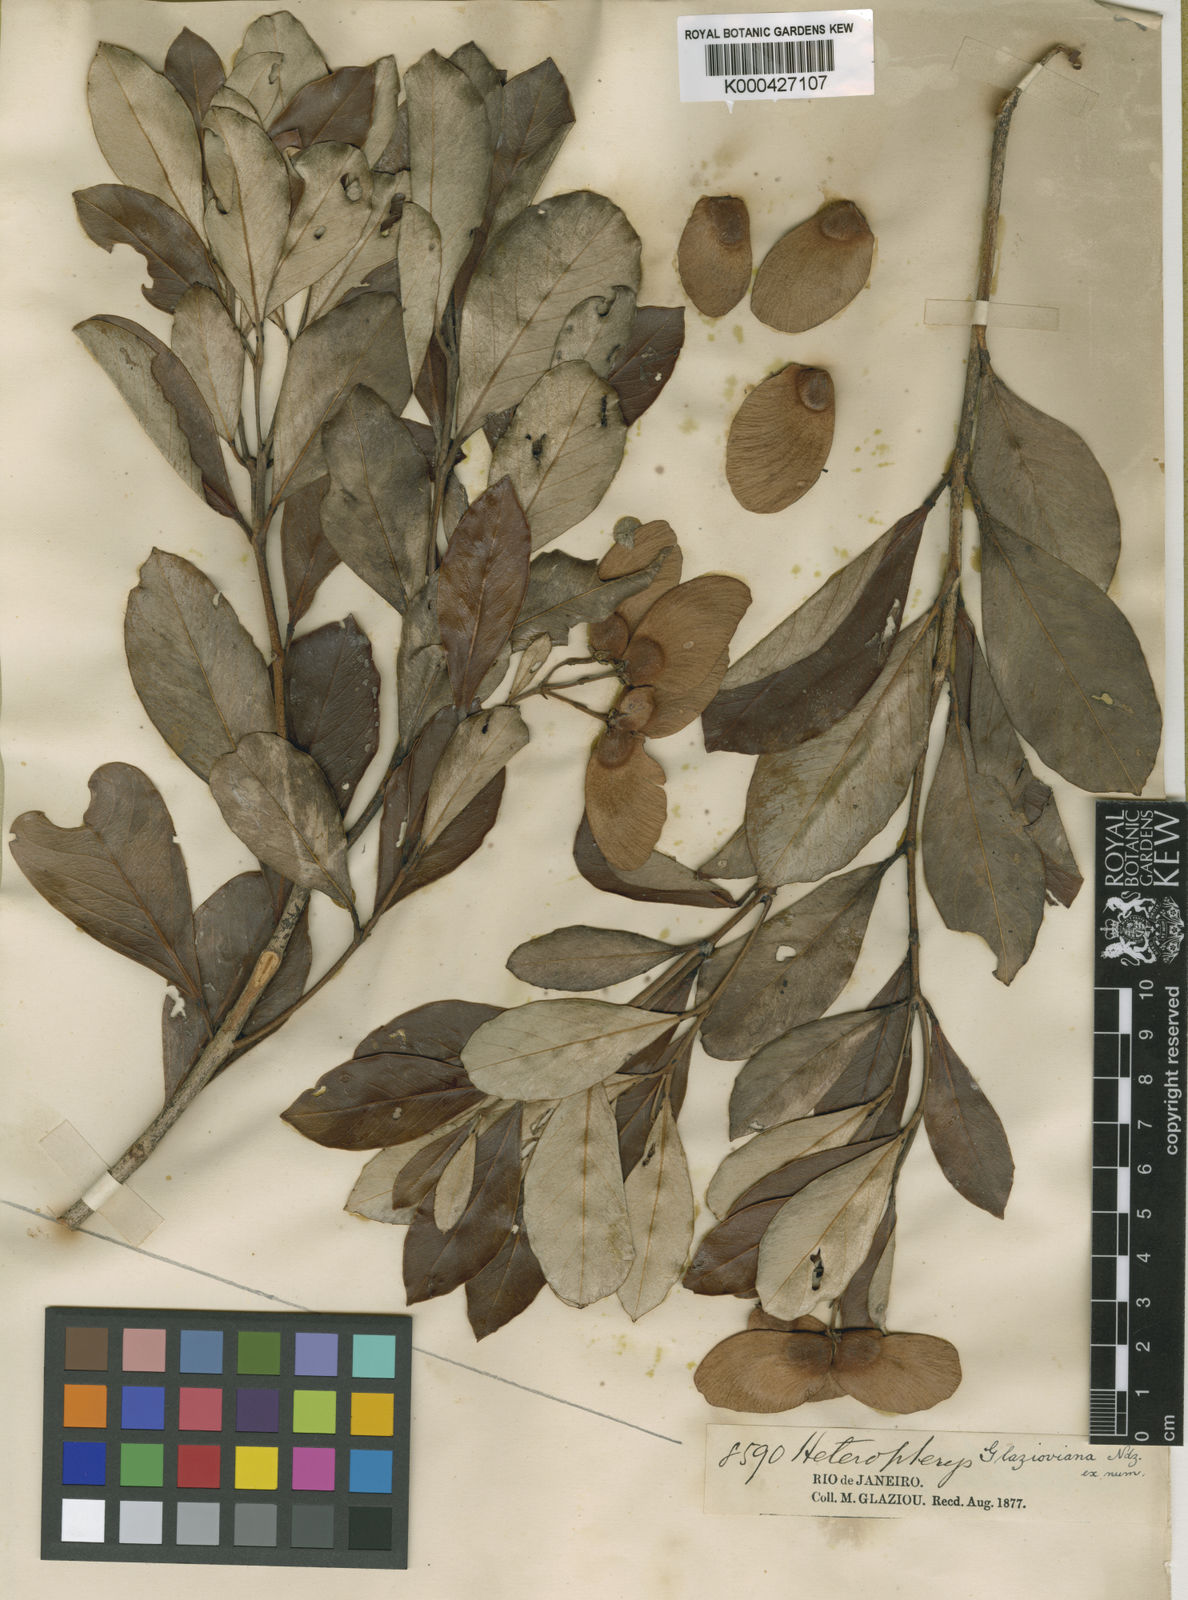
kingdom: Plantae
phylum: Tracheophyta
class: Magnoliopsida
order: Malpighiales
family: Malpighiaceae
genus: Heteropterys
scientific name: Heteropterys glazioviana
